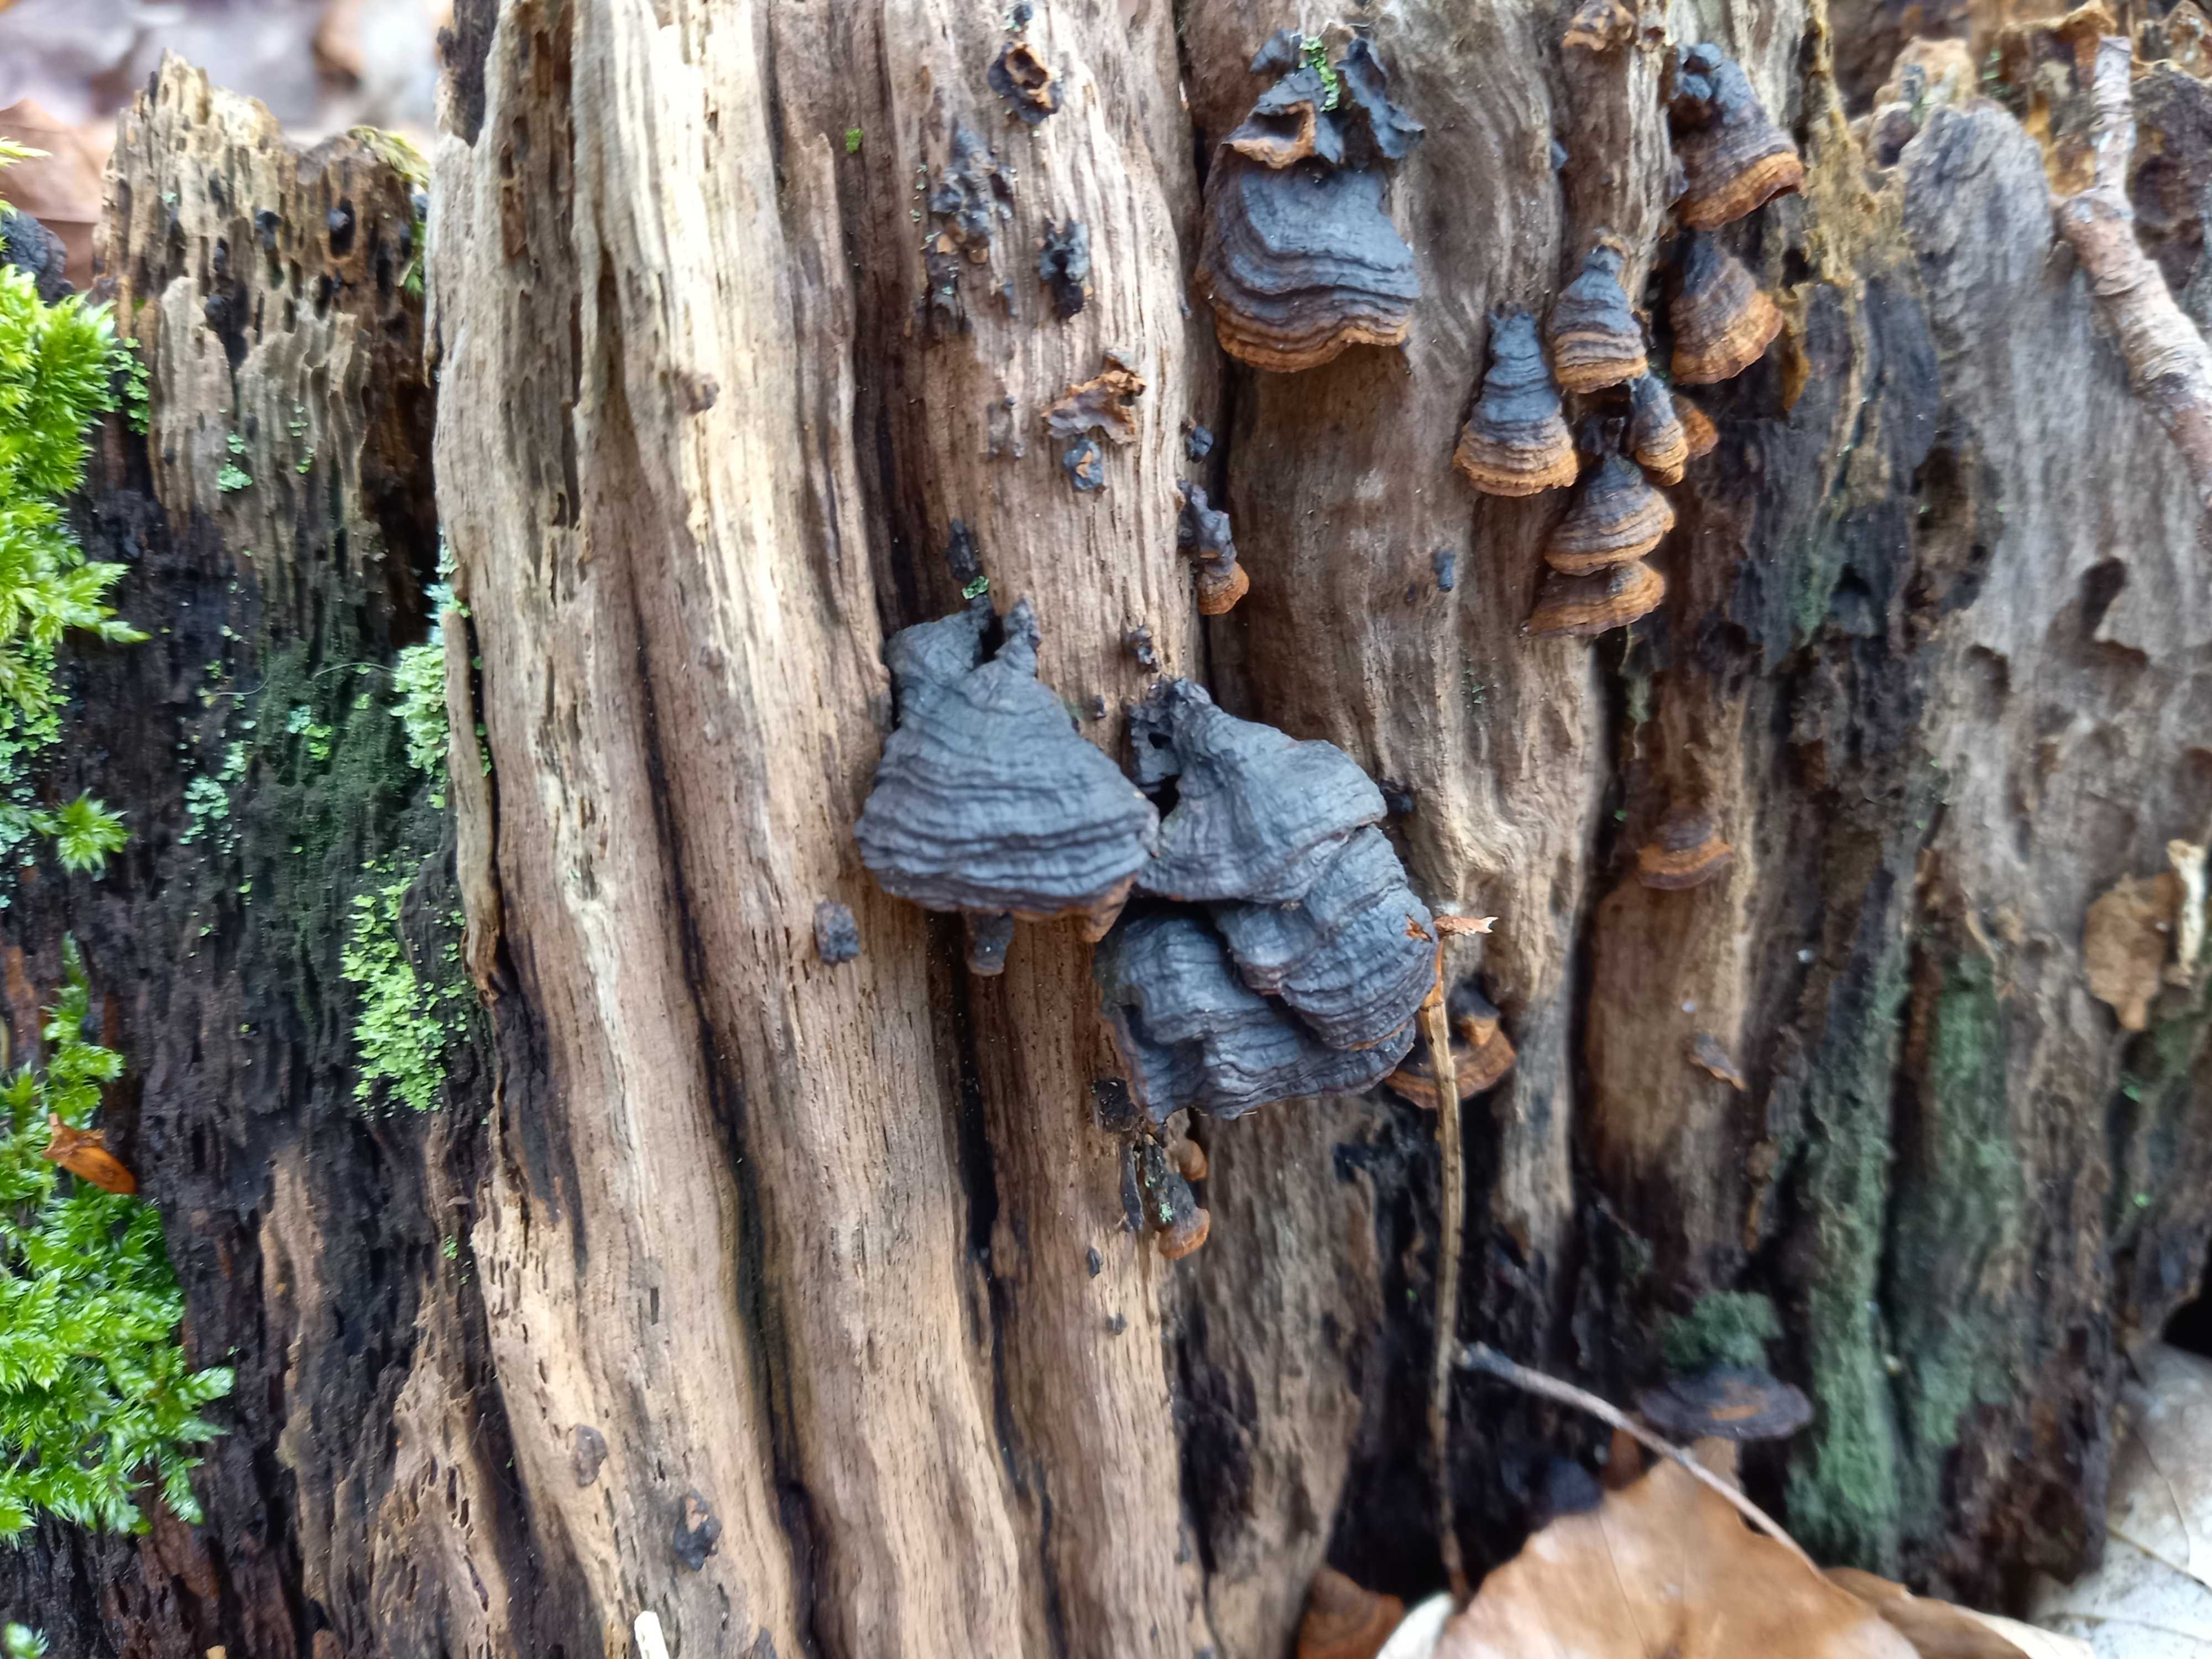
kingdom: Fungi
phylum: Basidiomycota
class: Agaricomycetes
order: Hymenochaetales
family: Hymenochaetaceae
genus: Hymenochaete
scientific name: Hymenochaete rubiginosa
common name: stiv ruslædersvamp
